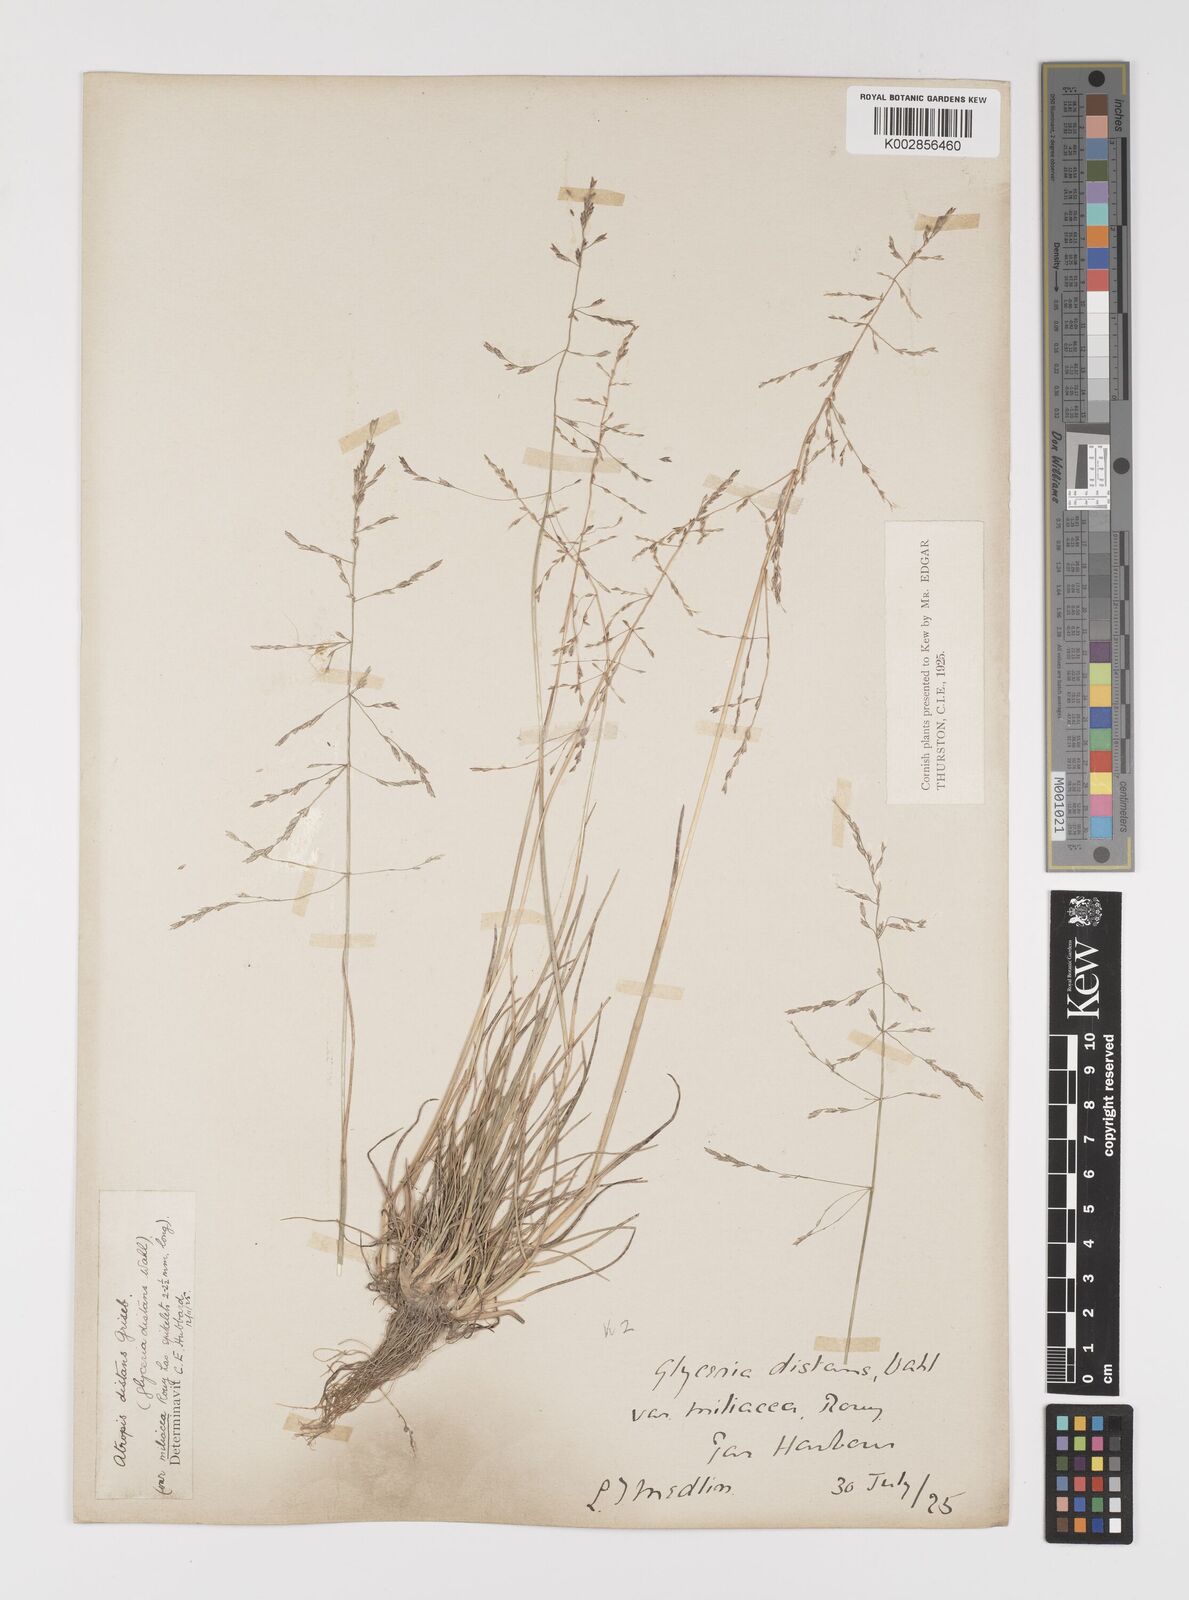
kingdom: Plantae
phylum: Tracheophyta
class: Liliopsida
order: Poales
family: Poaceae
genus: Puccinellia
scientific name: Puccinellia distans
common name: Weeping alkaligrass
